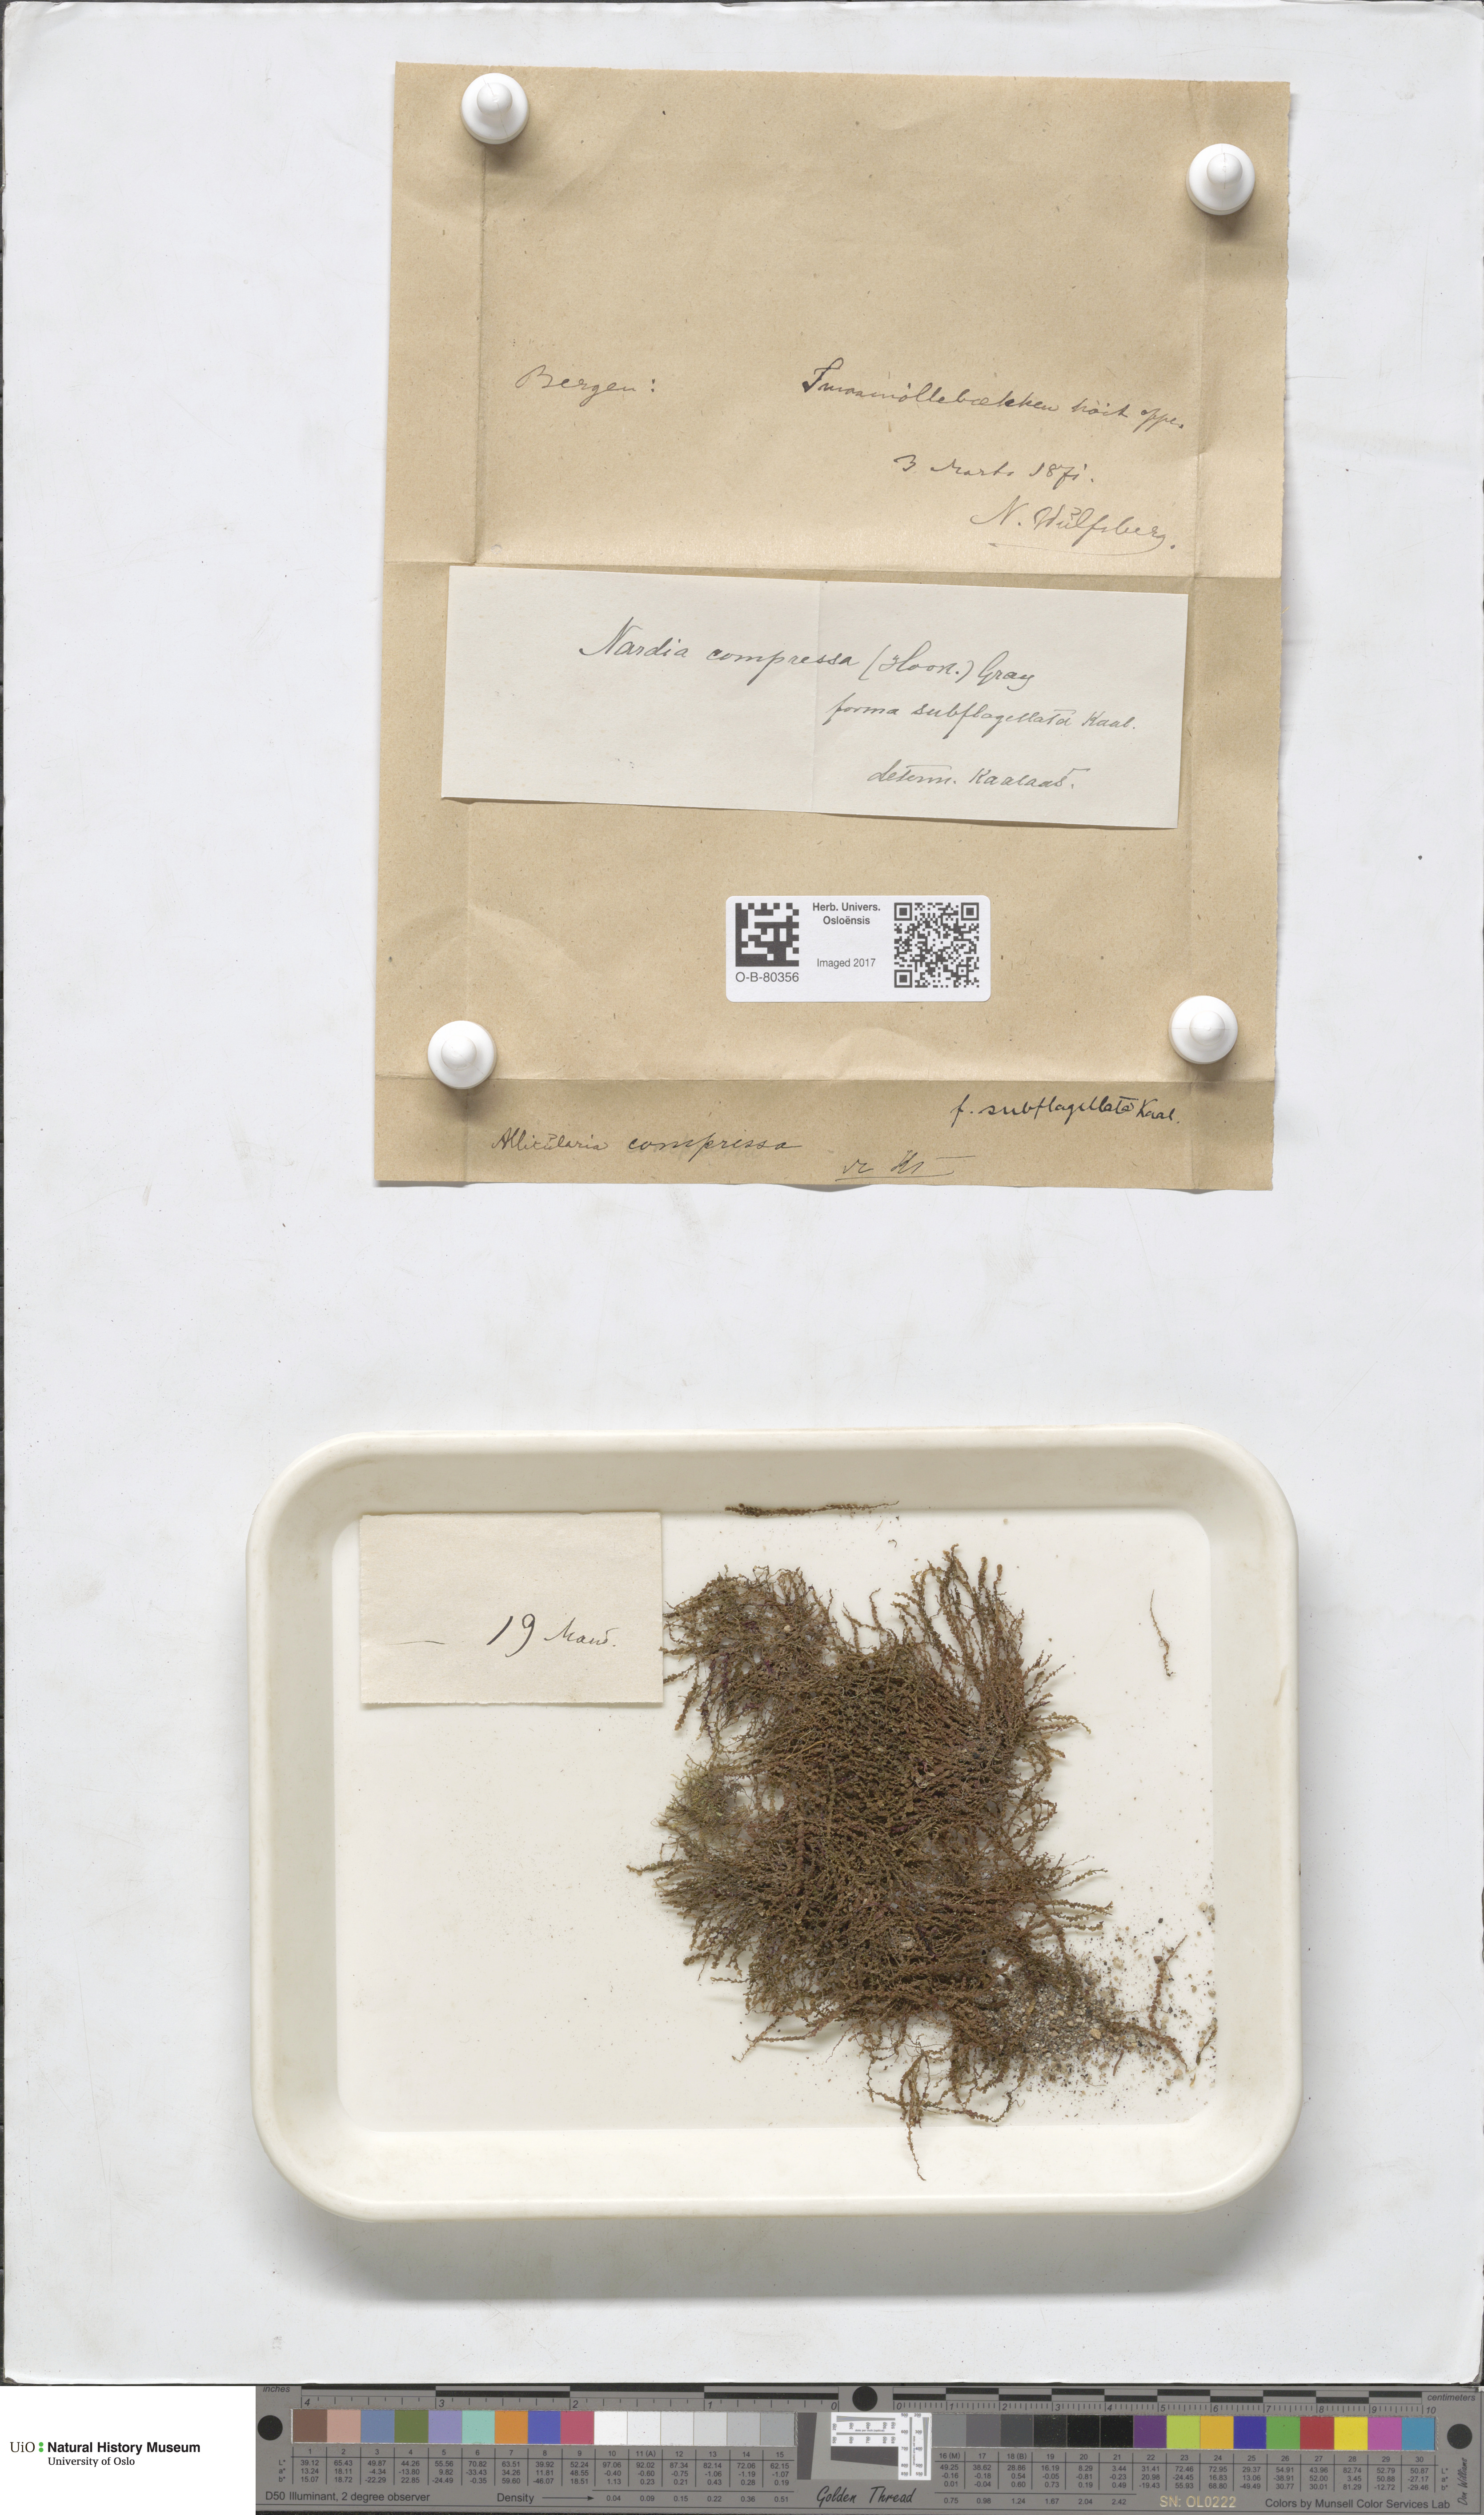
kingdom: Plantae
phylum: Marchantiophyta
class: Jungermanniopsida
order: Jungermanniales
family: Gymnomitriaceae
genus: Nardia
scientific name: Nardia compressa
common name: Compressed flapwort
